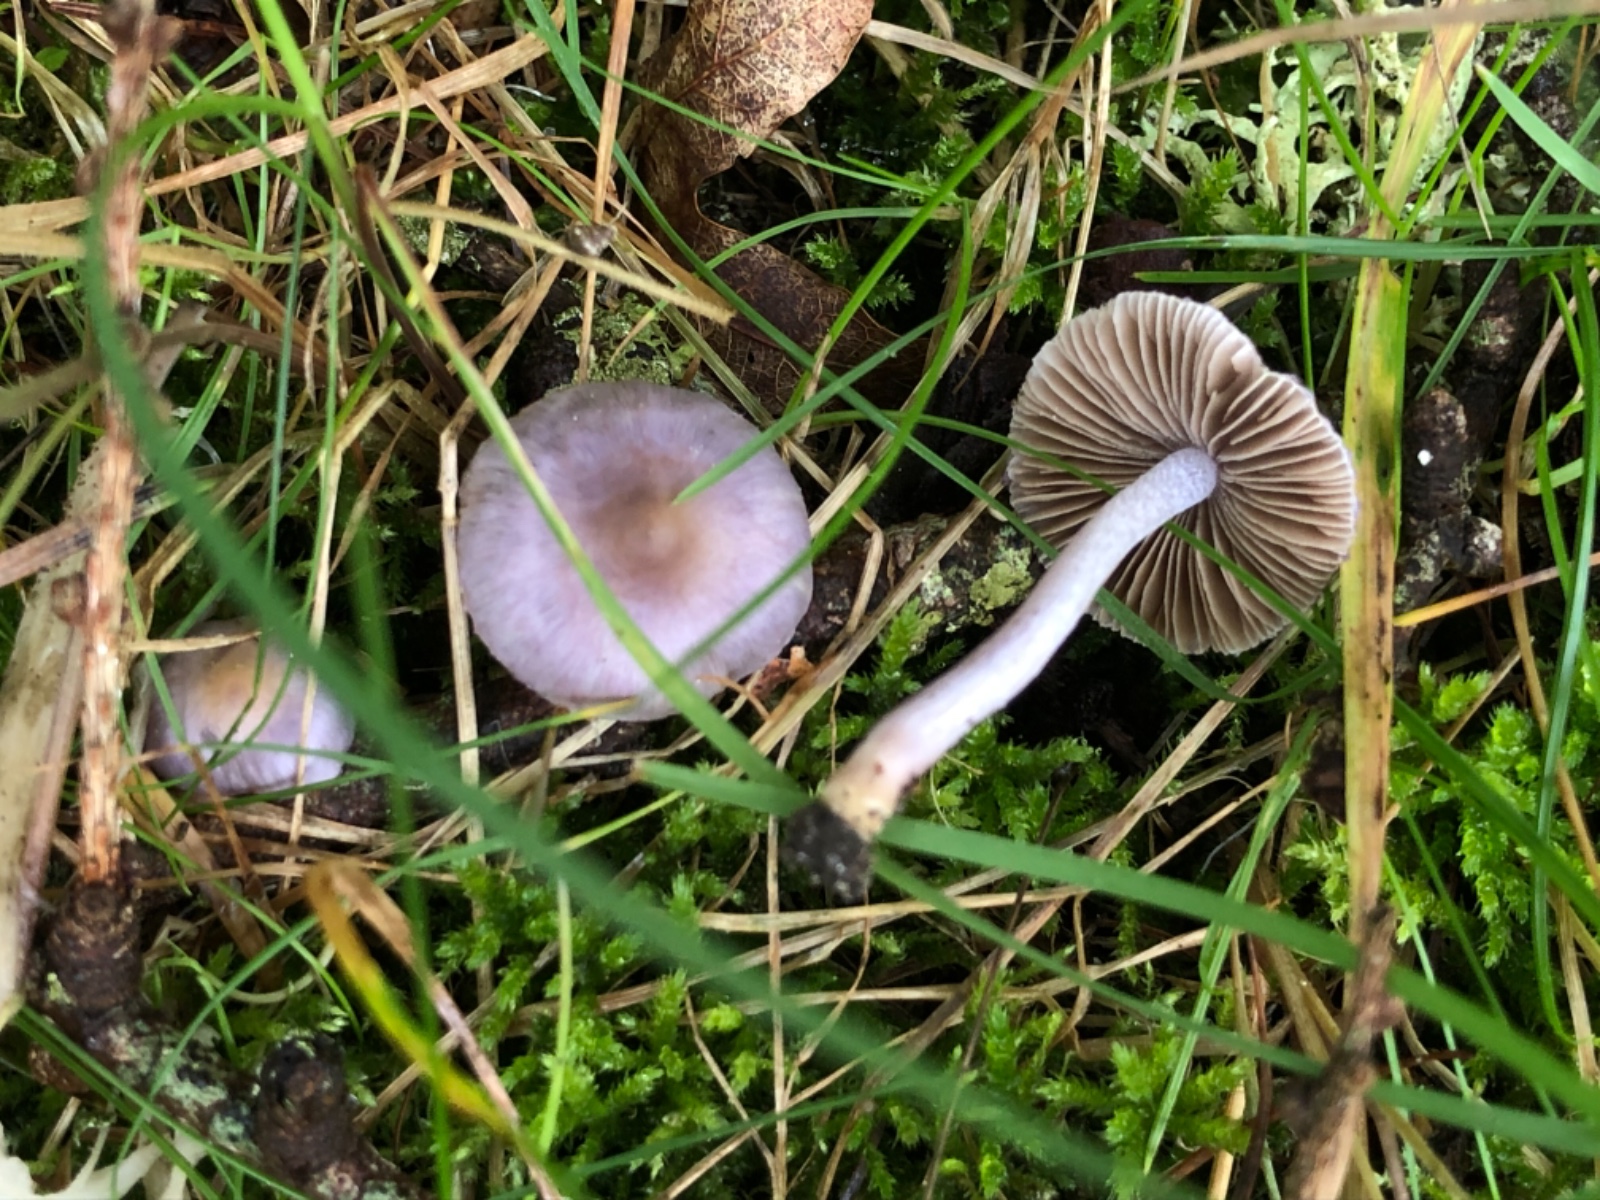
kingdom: Fungi
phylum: Basidiomycota
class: Agaricomycetes
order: Agaricales
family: Inocybaceae
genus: Inocybe
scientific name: Inocybe geophylla
